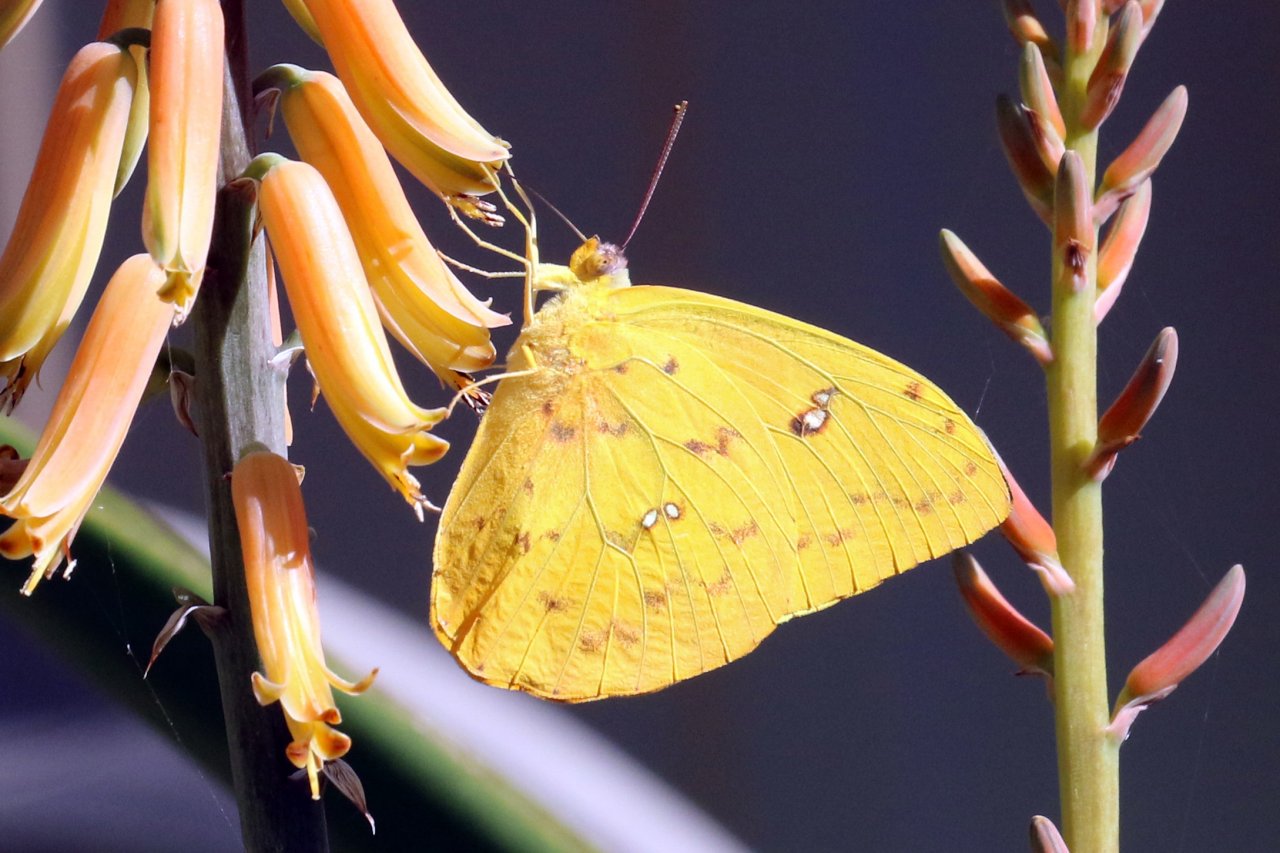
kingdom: Animalia
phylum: Arthropoda
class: Insecta
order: Lepidoptera
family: Pieridae
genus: Phoebis
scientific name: Phoebis philea
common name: Orange-barred Sulphur
